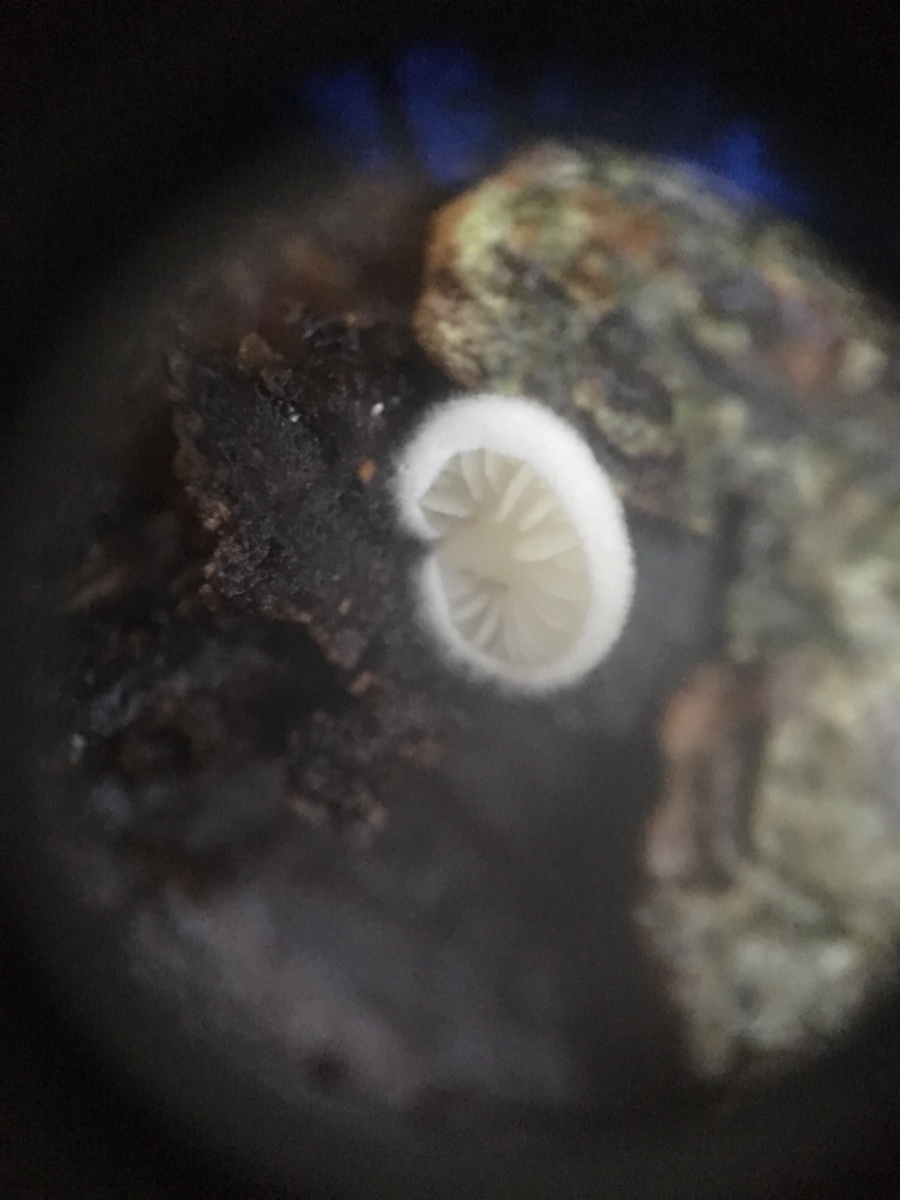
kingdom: Fungi
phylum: Basidiomycota
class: Agaricomycetes
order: Agaricales
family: Entolomataceae
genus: Clitopilus
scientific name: Clitopilus hobsonii
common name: Miller's oysterling
